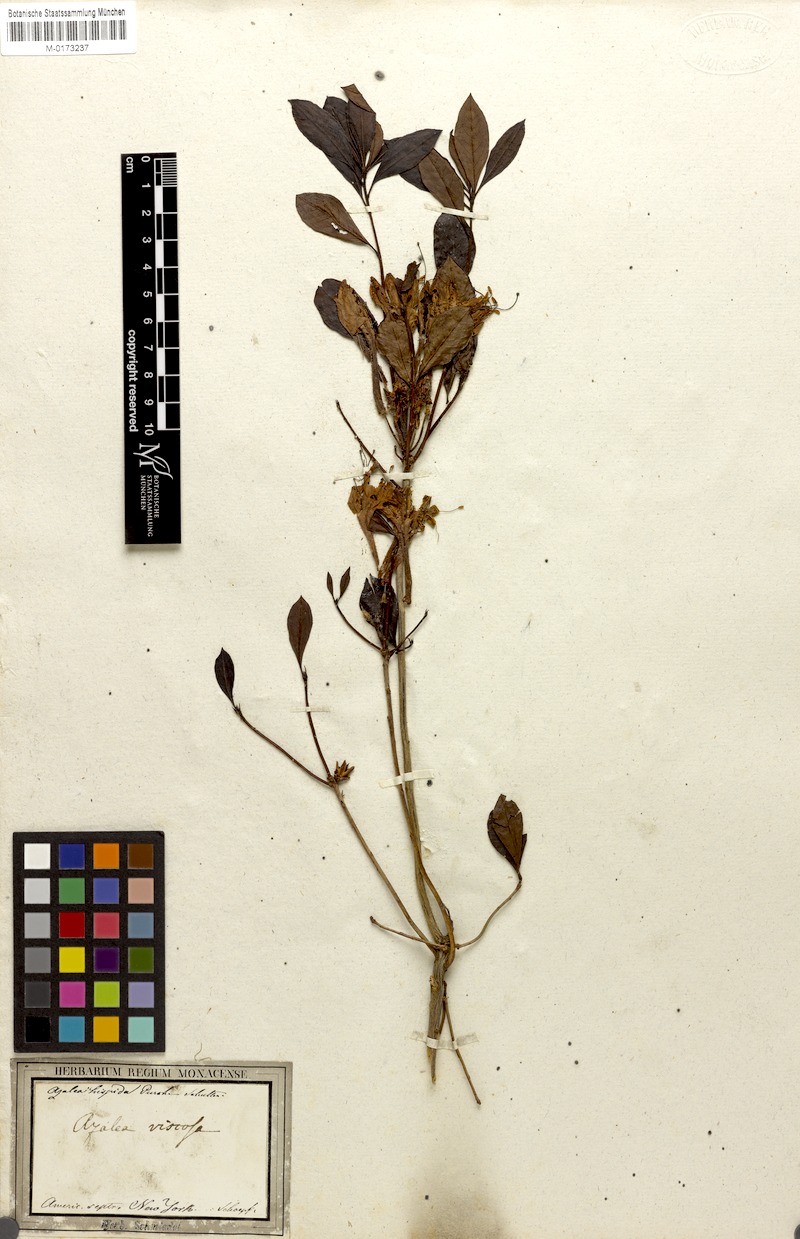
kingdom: Plantae
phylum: Tracheophyta
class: Magnoliopsida
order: Ericales
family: Ericaceae
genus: Rhododendron
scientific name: Rhododendron viscosum
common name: Clammy azalea
